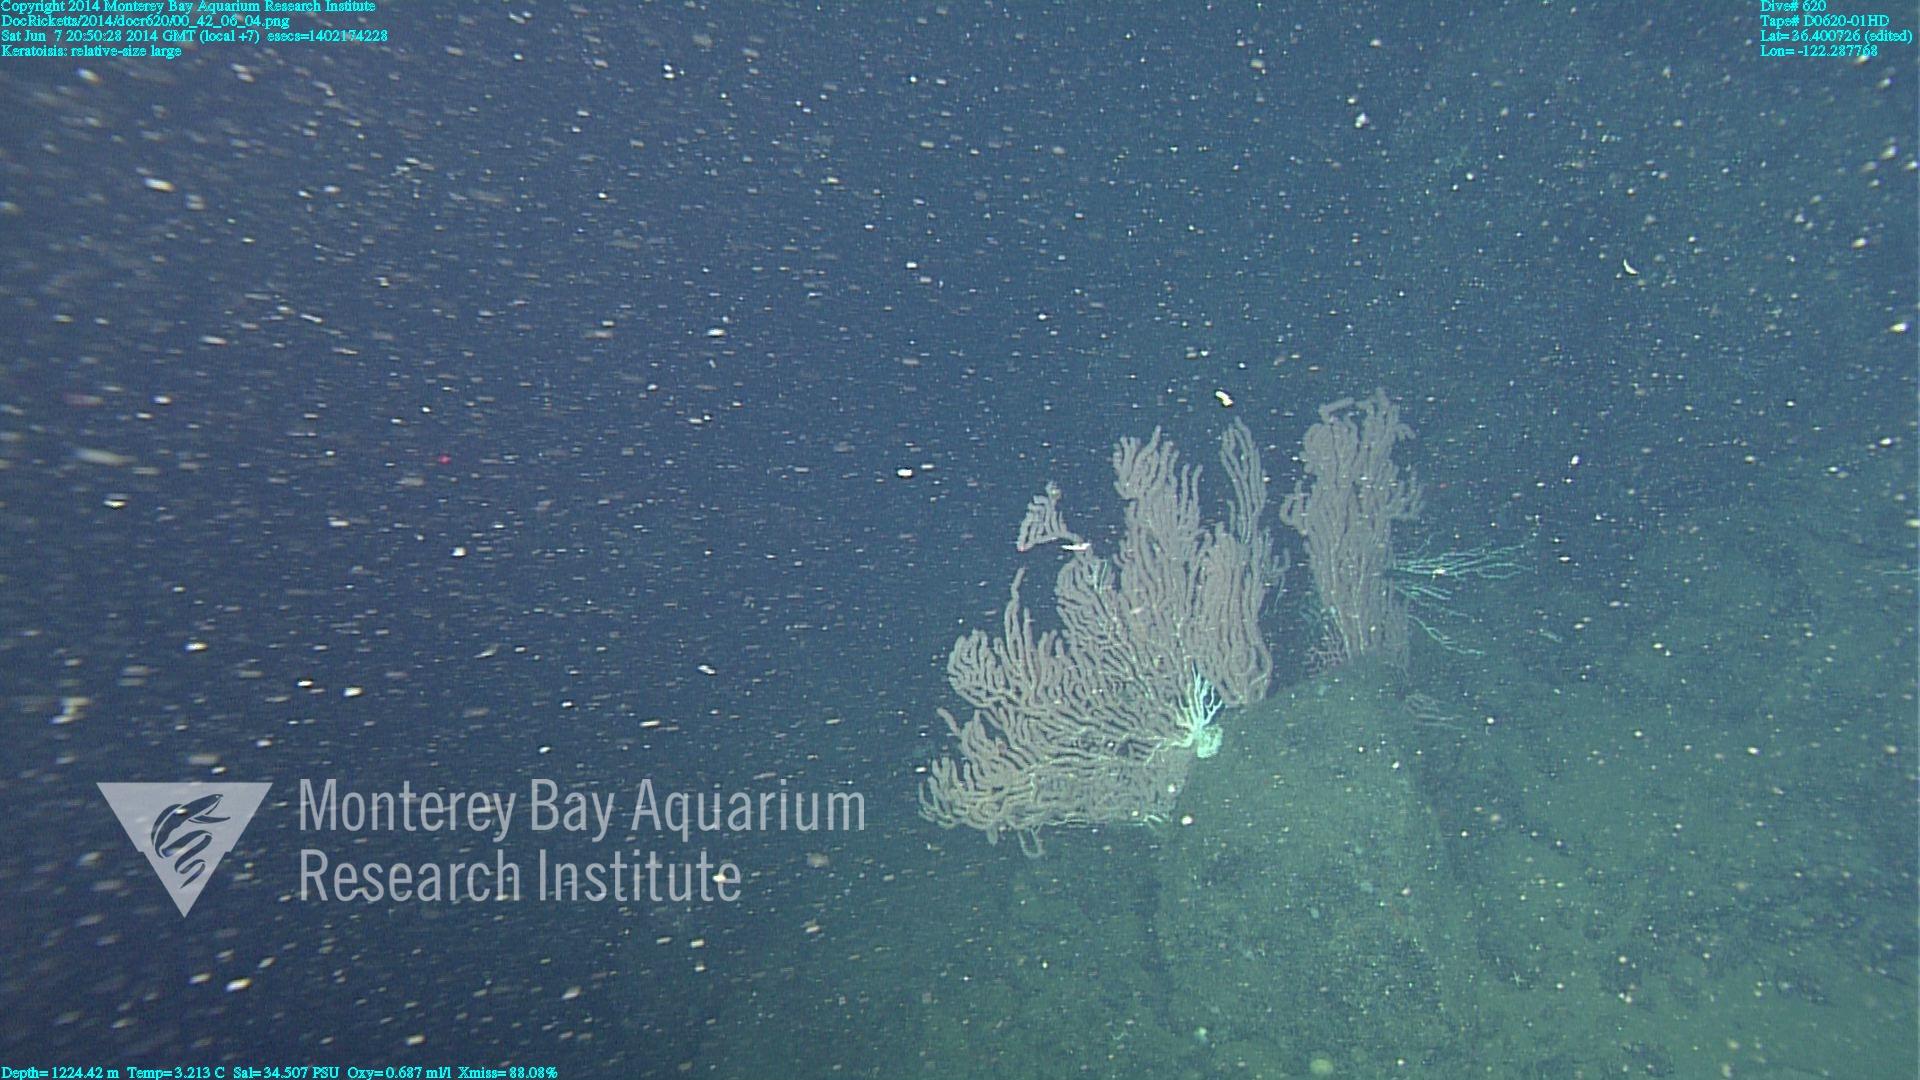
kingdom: Animalia
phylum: Cnidaria
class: Anthozoa
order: Scleralcyonacea
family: Keratoisididae
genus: Keratoisis
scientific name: Keratoisis
